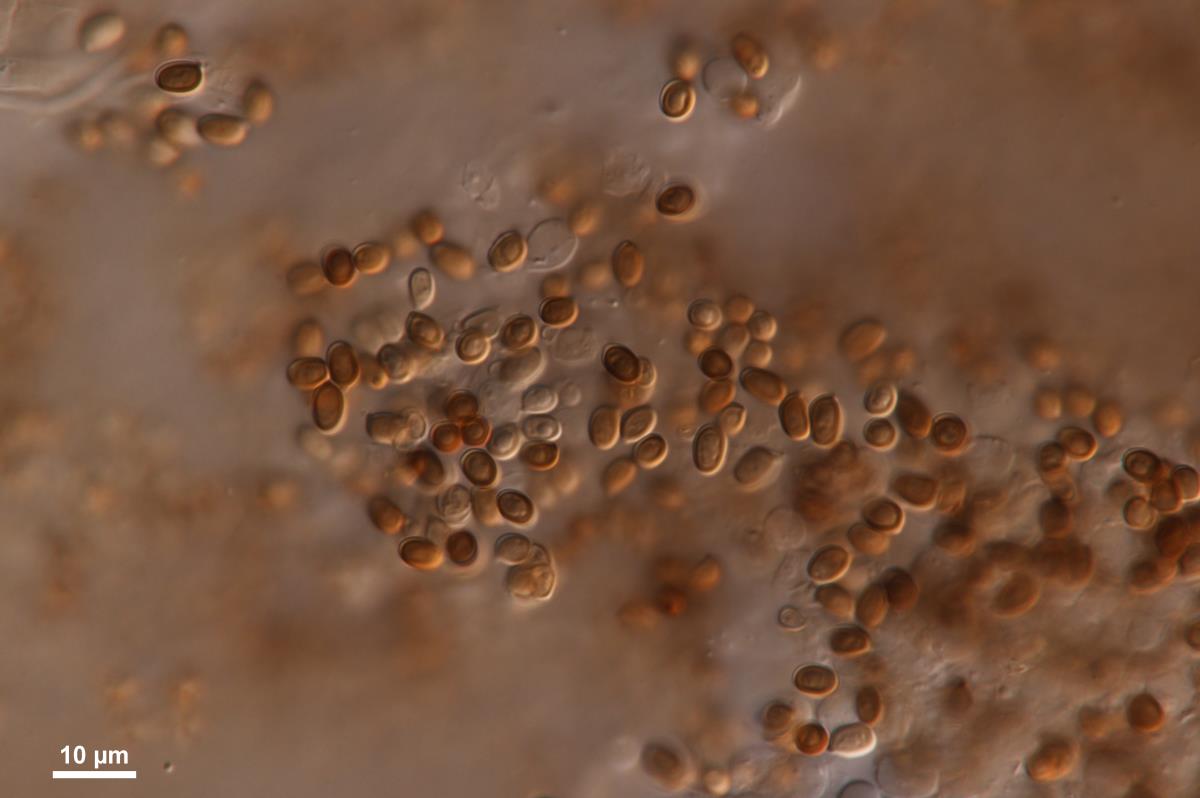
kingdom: Fungi
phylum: Basidiomycota
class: Agaricomycetes
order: Agaricales
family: Agaricaceae
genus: Agaricus
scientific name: Agaricus
